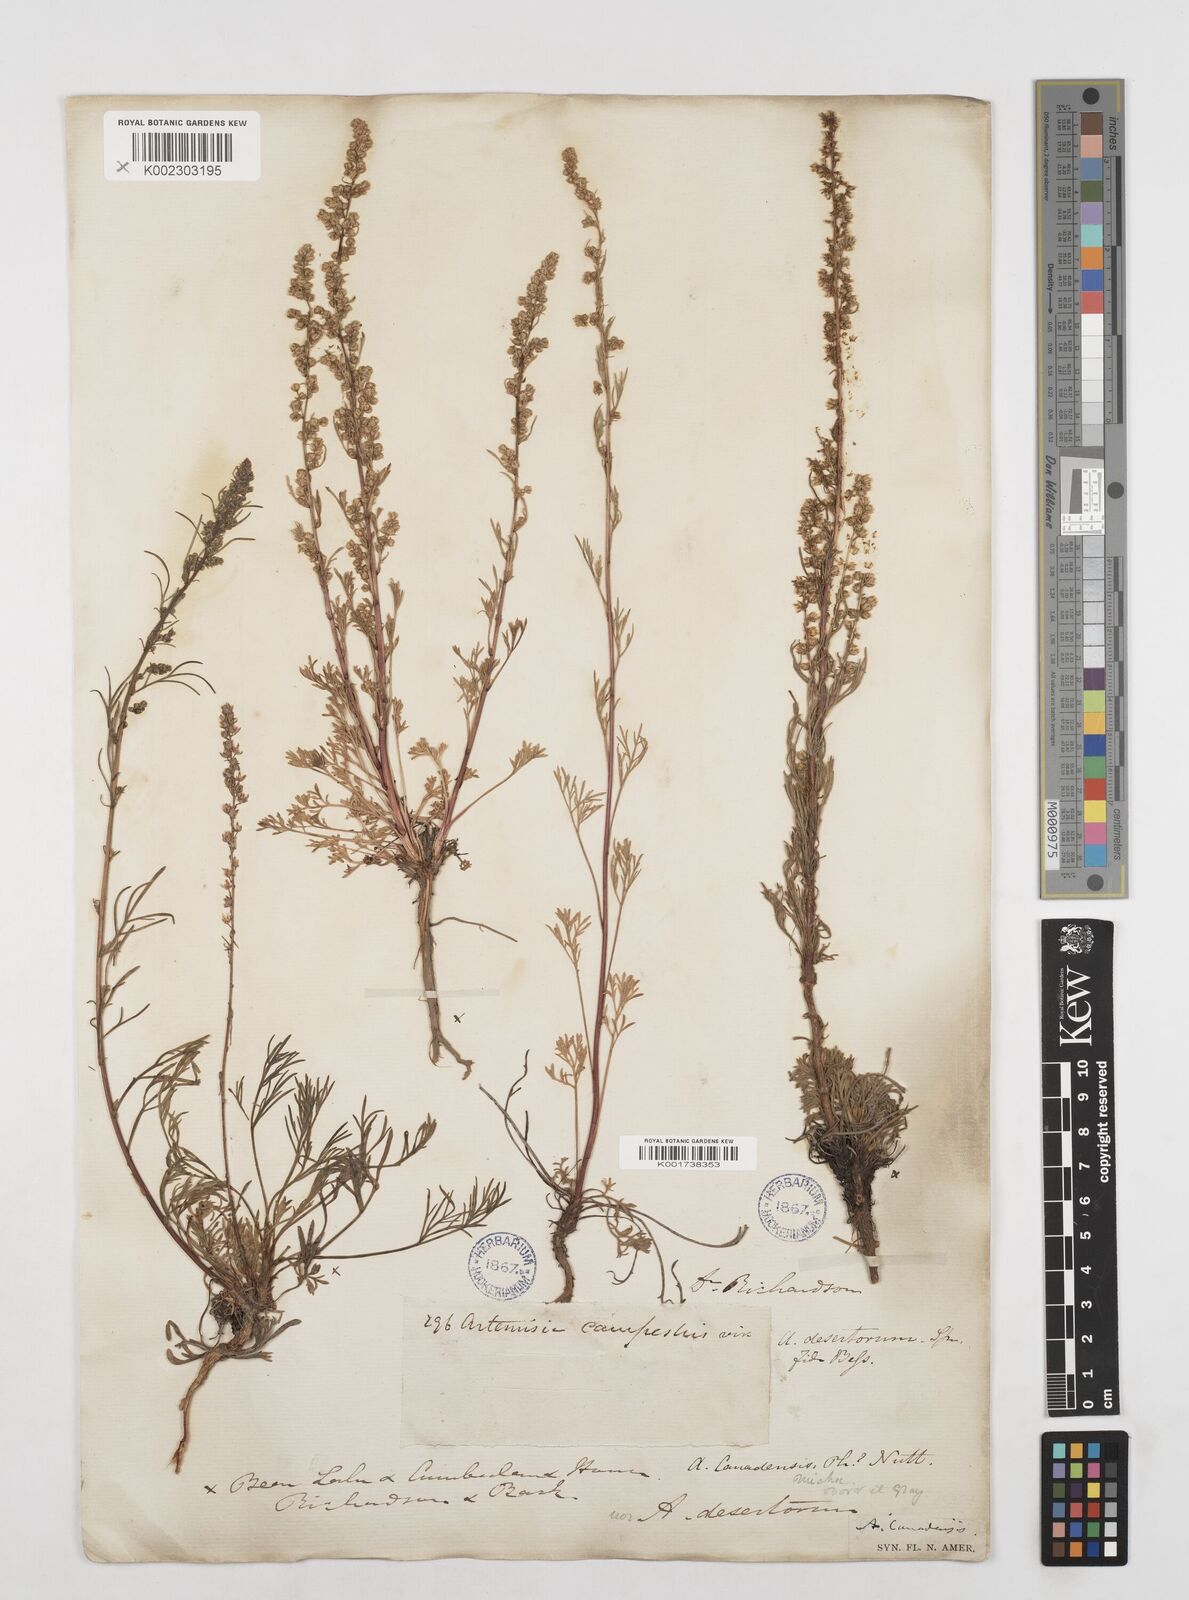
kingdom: Plantae
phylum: Tracheophyta
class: Magnoliopsida
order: Asterales
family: Asteraceae
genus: Artemisia
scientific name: Artemisia campestris
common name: Field wormwood
